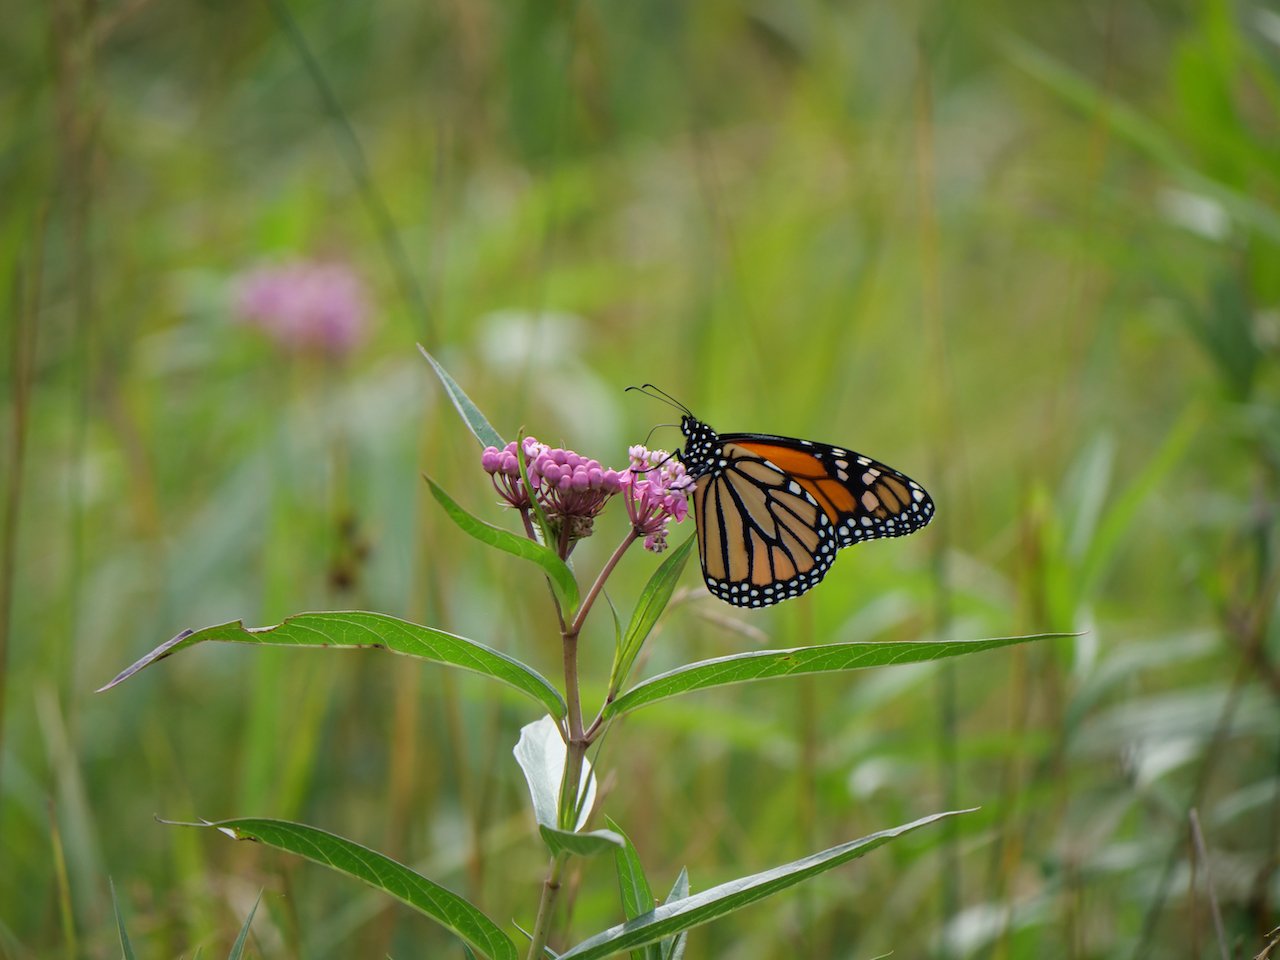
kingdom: Animalia
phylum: Arthropoda
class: Insecta
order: Lepidoptera
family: Nymphalidae
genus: Danaus
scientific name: Danaus plexippus
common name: Monarch
